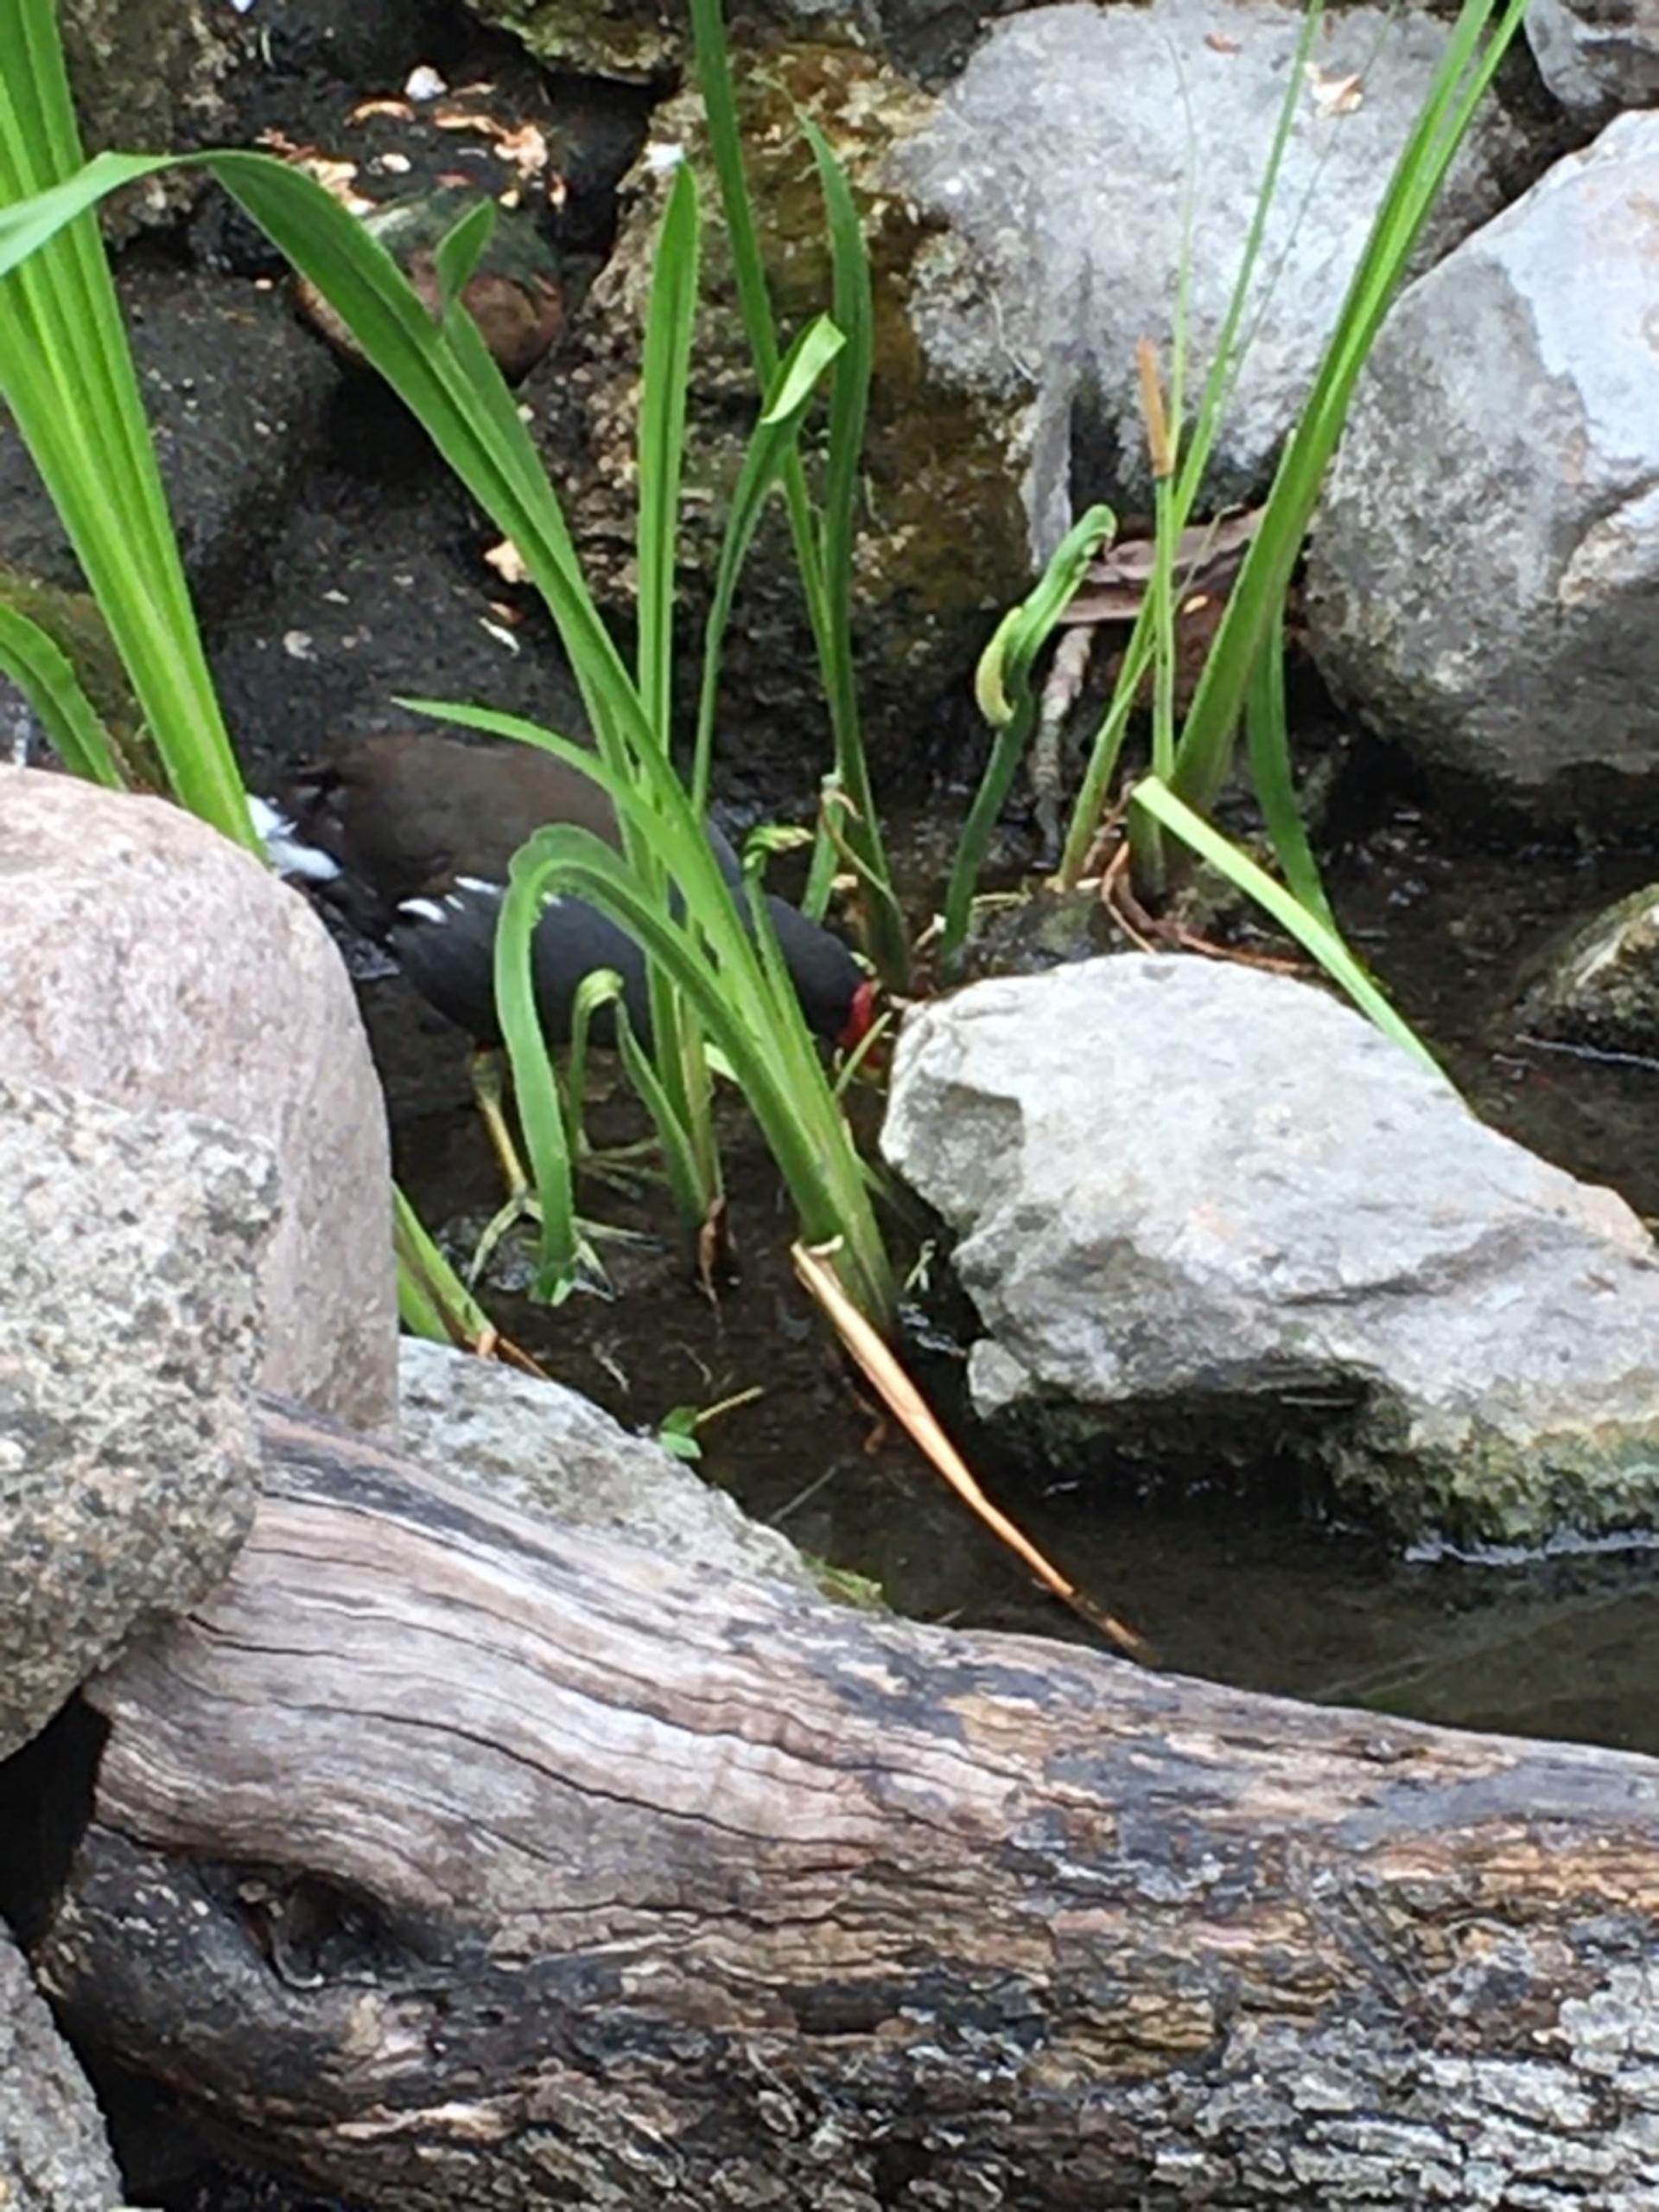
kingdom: Animalia
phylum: Chordata
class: Aves
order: Gruiformes
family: Rallidae
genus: Gallinula
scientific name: Gallinula chloropus
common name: Grønbenet rørhøne
